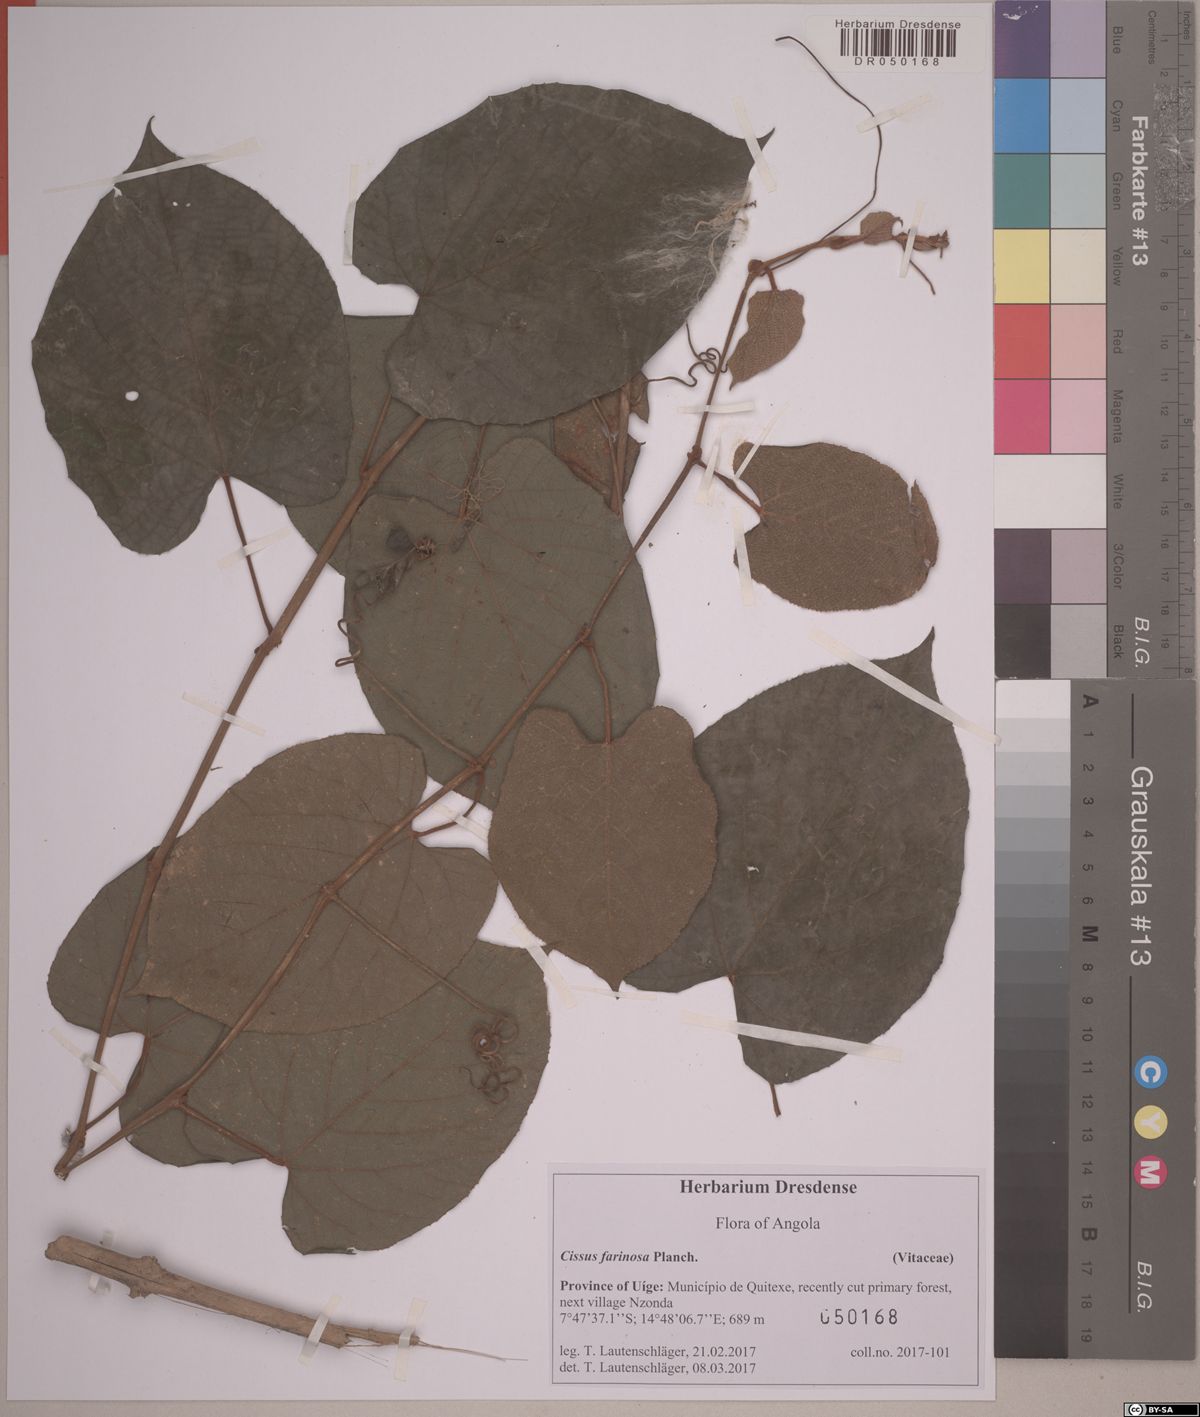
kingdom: Plantae
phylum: Tracheophyta
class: Magnoliopsida
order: Vitales
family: Vitaceae
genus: Cissus
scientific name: Cissus farinosa
